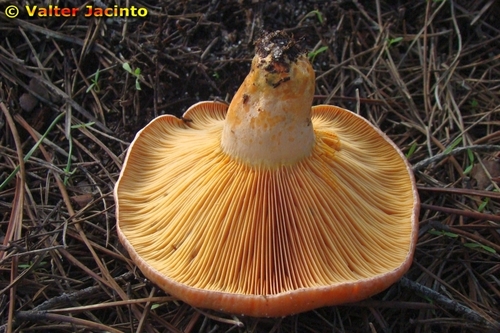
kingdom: Fungi
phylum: Basidiomycota
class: Agaricomycetes
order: Russulales
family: Russulaceae
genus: Lactarius
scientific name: Lactarius deliciosus
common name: Saffron milk-cap
